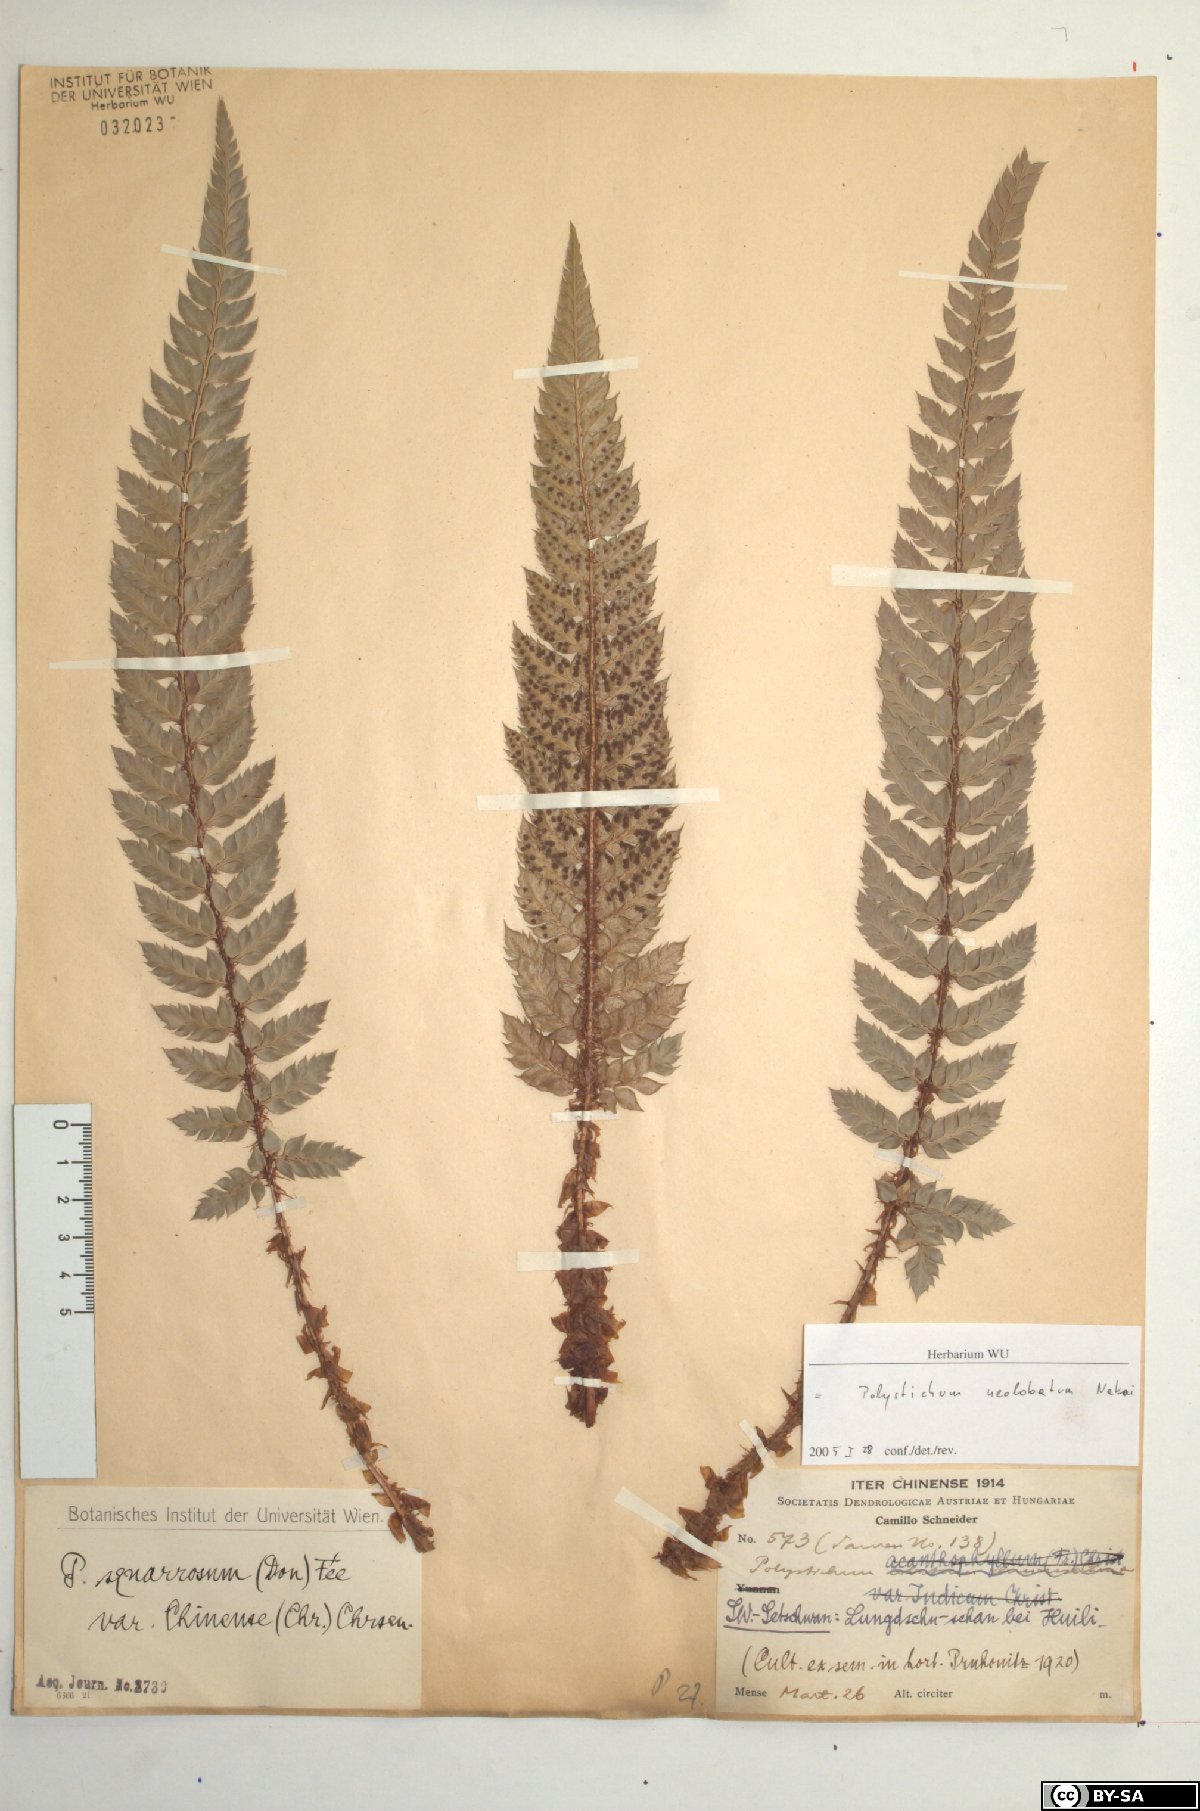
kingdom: Plantae
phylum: Tracheophyta
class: Polypodiopsida
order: Polypodiales
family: Dryopteridaceae
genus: Polystichum
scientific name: Polystichum neolobatum
